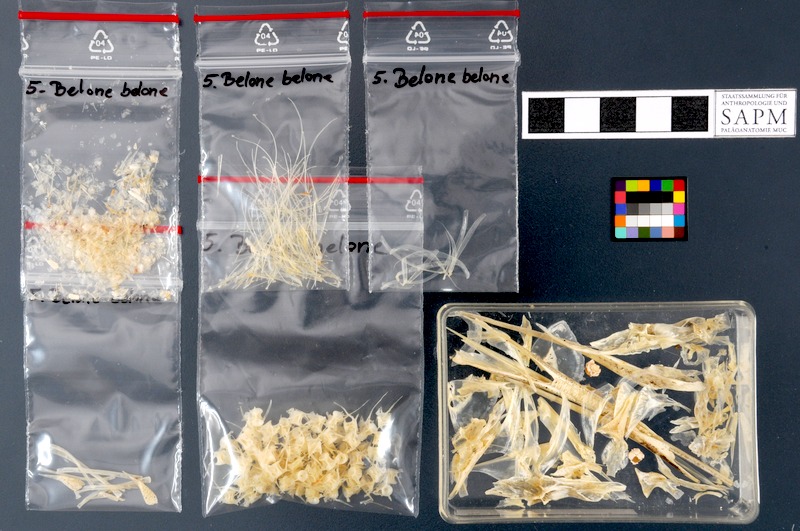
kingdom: Animalia
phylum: Chordata
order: Beloniformes
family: Belonidae
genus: Belone
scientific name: Belone belone
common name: Garfish
